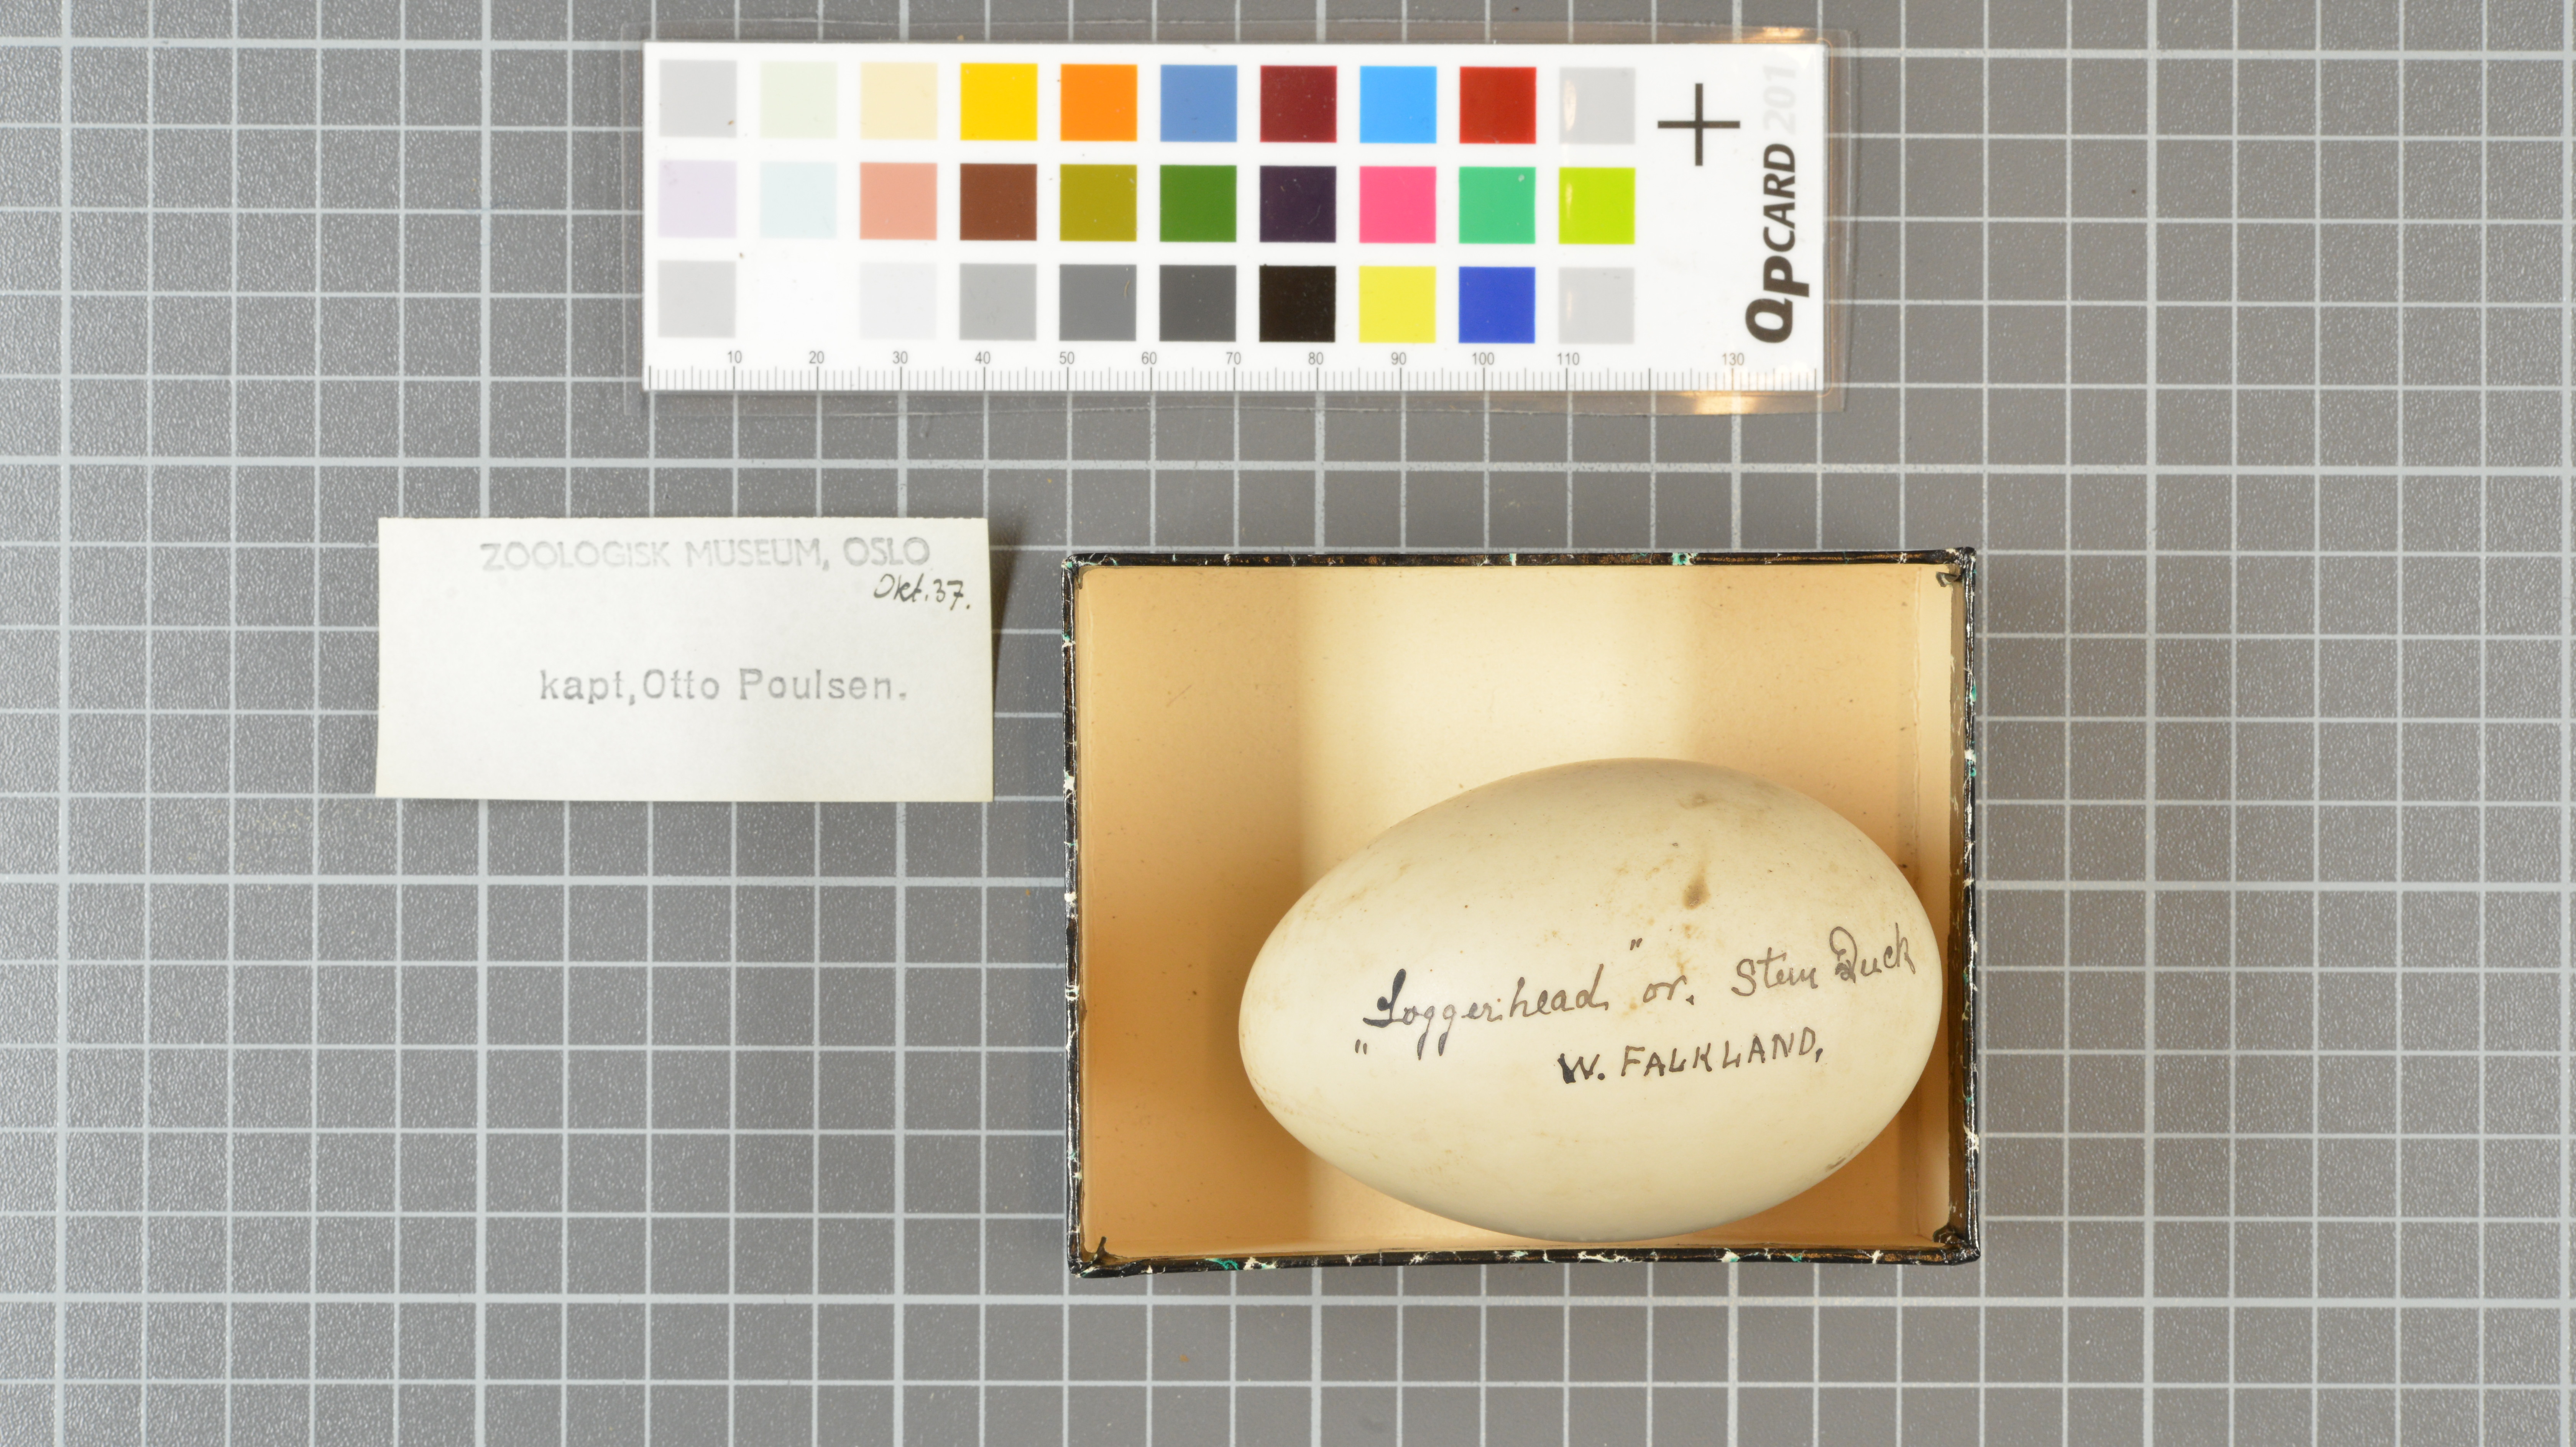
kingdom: Animalia
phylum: Chordata
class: Aves
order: Anseriformes
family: Anatidae
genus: Tachyeres
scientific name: Tachyeres brachypterus
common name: Falkland steamer duck
